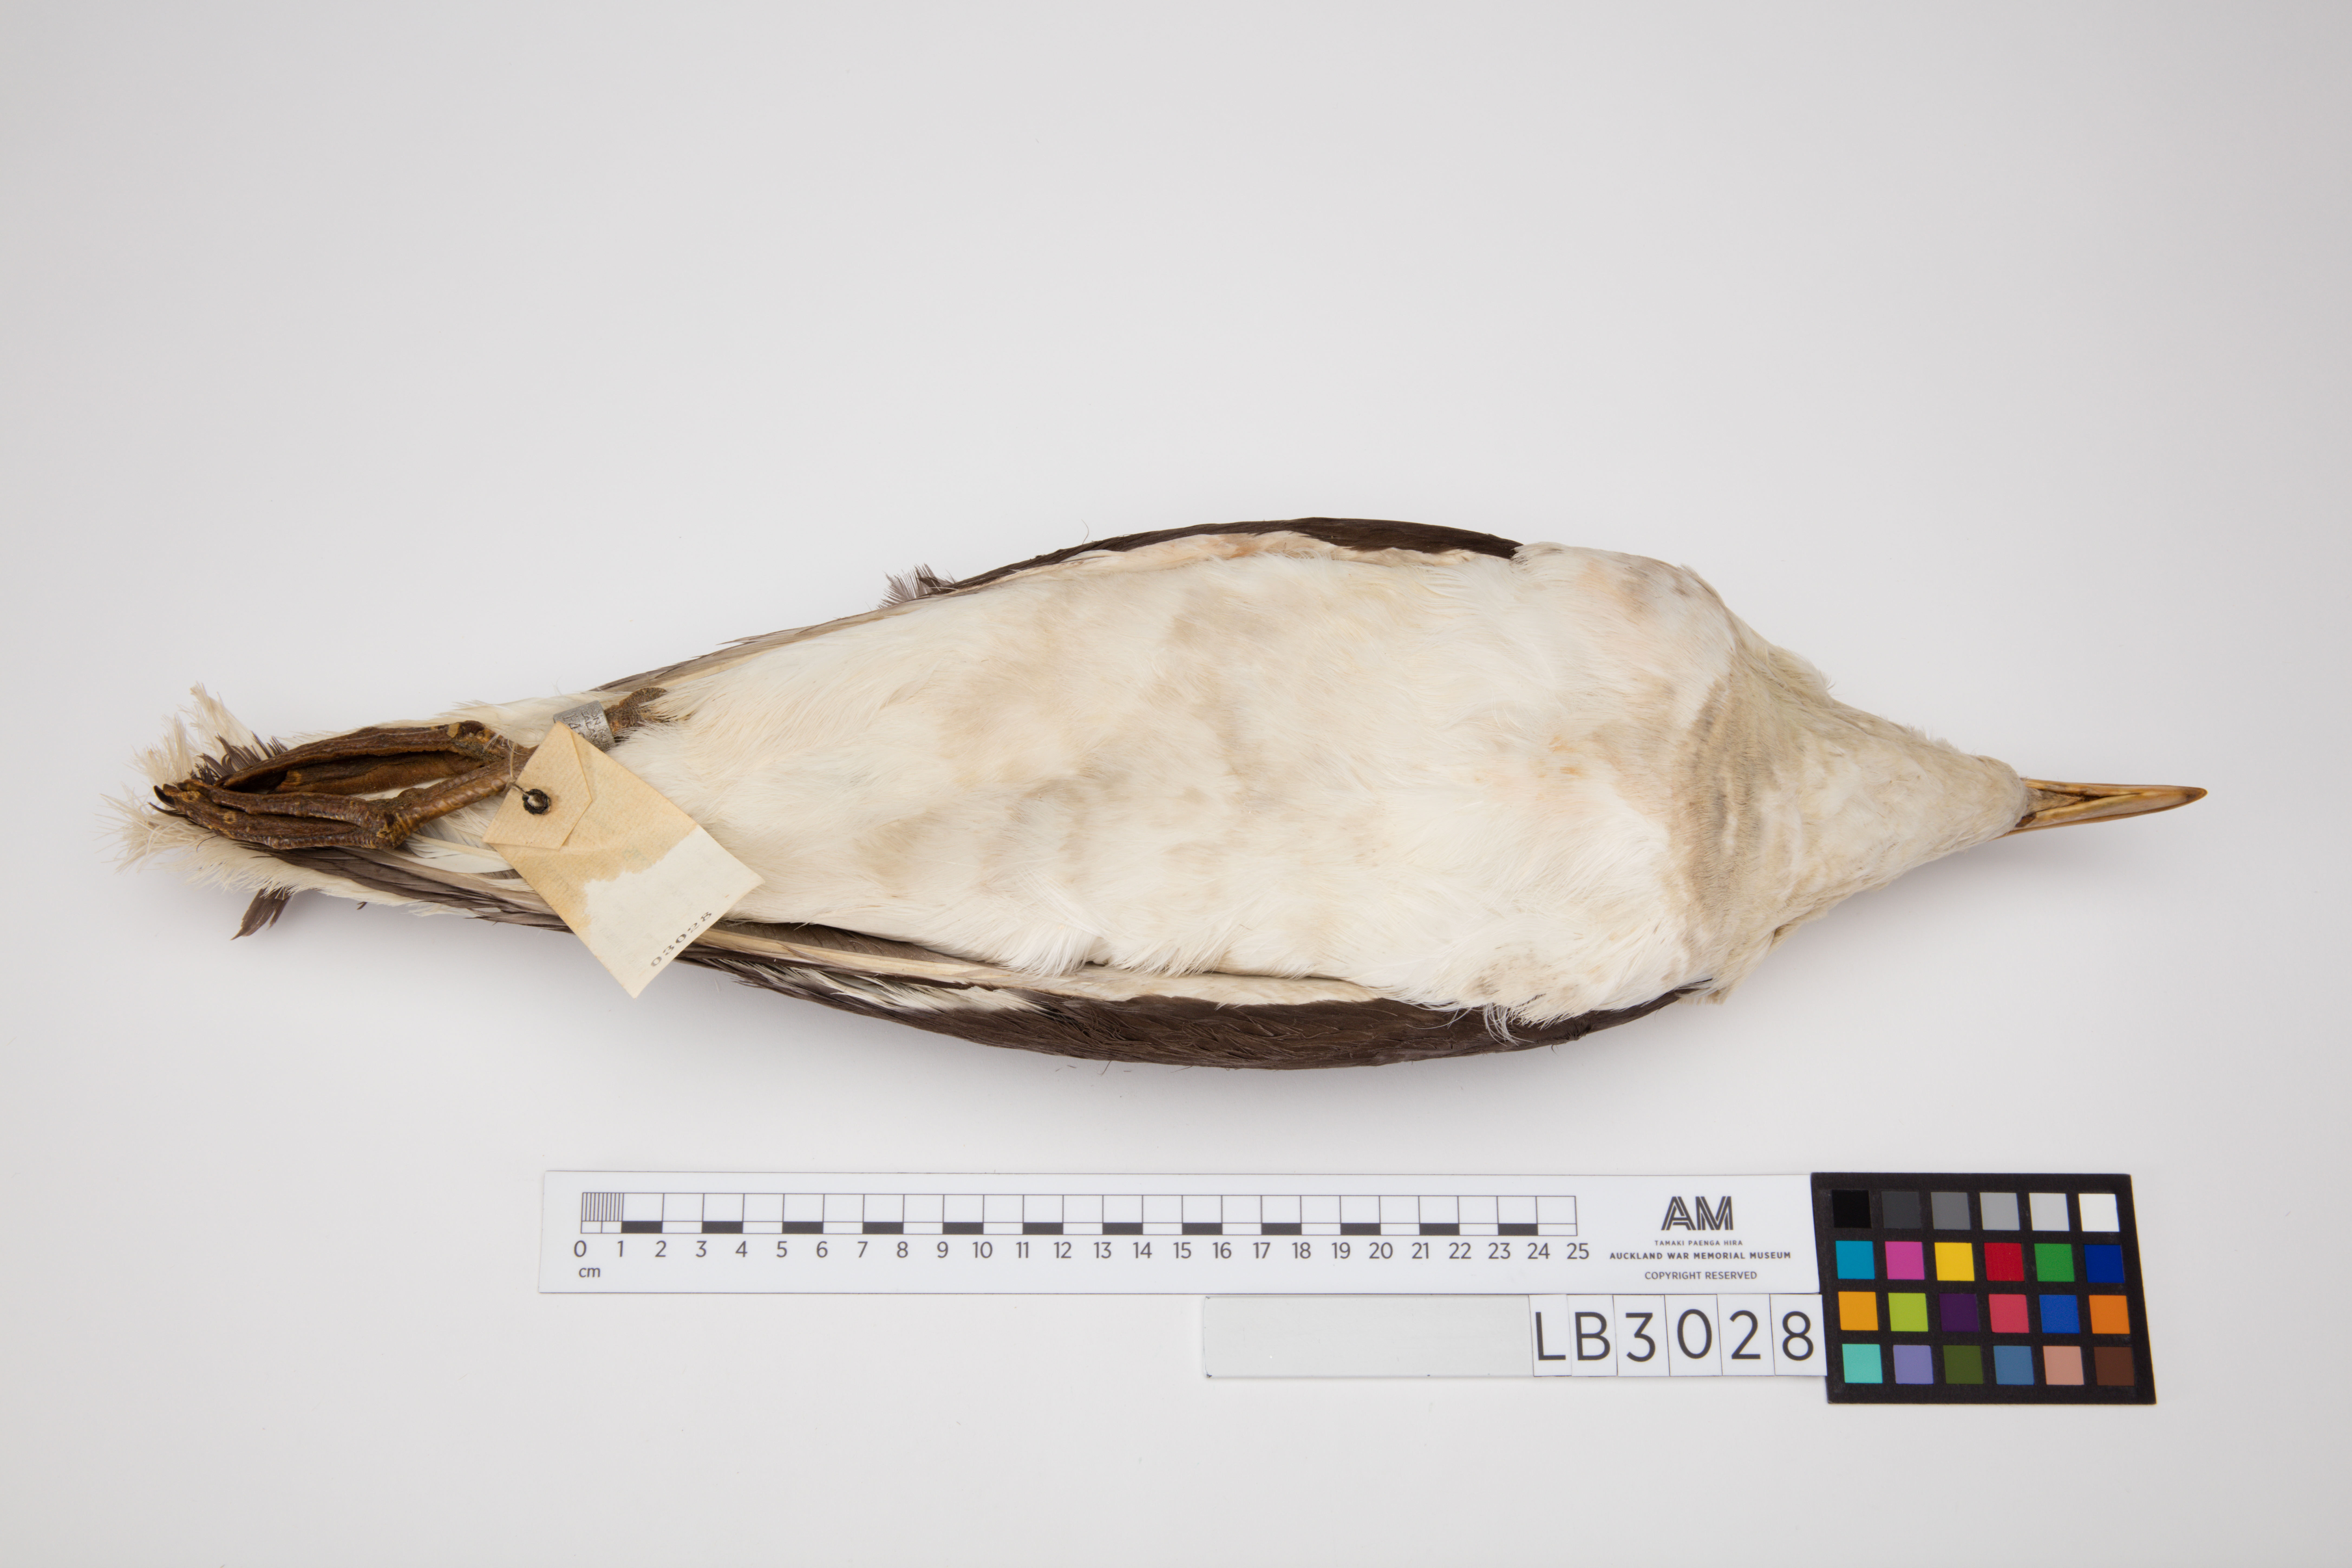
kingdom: Animalia
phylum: Chordata
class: Aves
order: Charadriiformes
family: Laridae
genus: Larus
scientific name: Larus dominicanus
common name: Kelp gull
